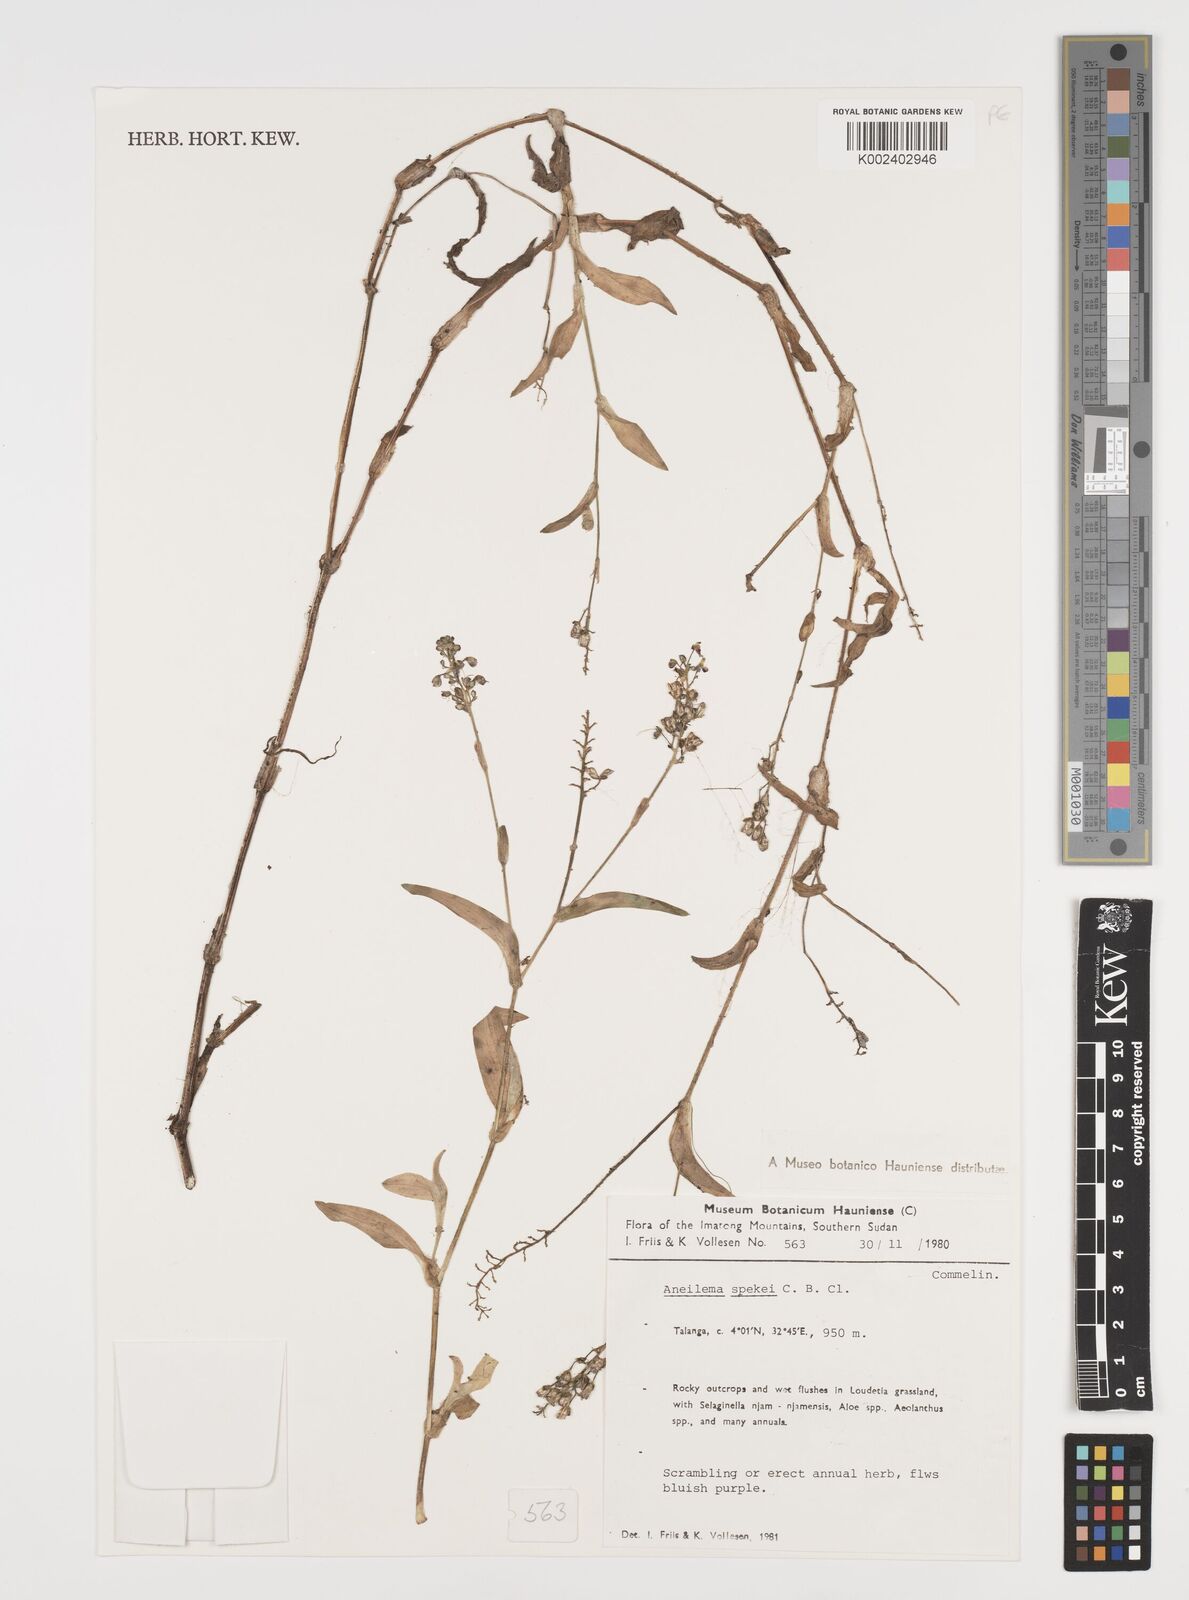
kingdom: Plantae
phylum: Tracheophyta
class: Liliopsida
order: Commelinales
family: Commelinaceae
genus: Aneilema
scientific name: Aneilema spekei
